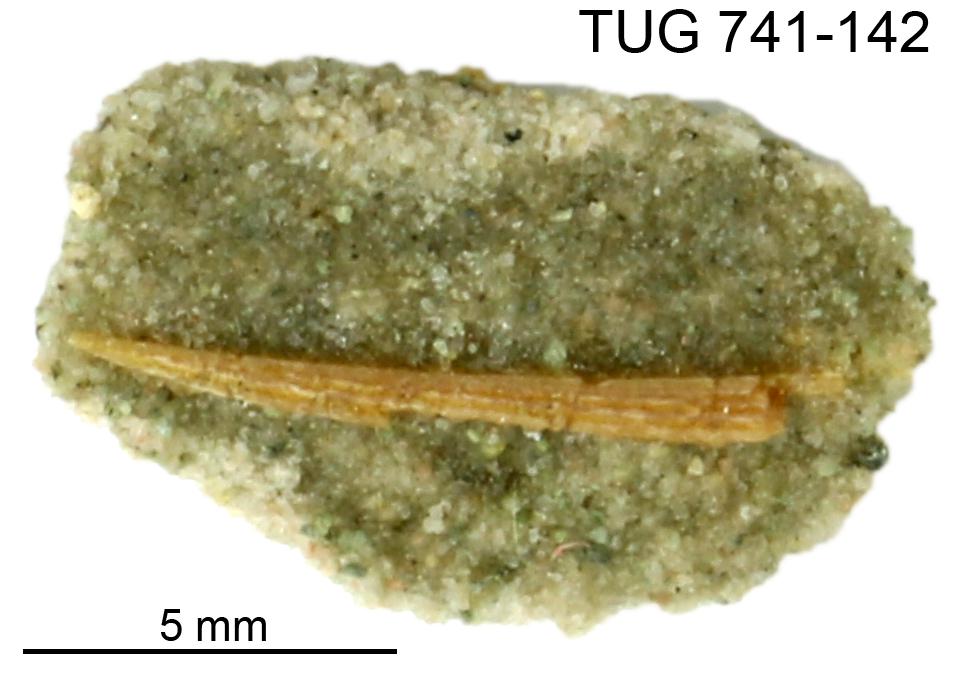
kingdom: Animalia
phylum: Chordata
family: Acanthodidae
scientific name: Acanthodidae
